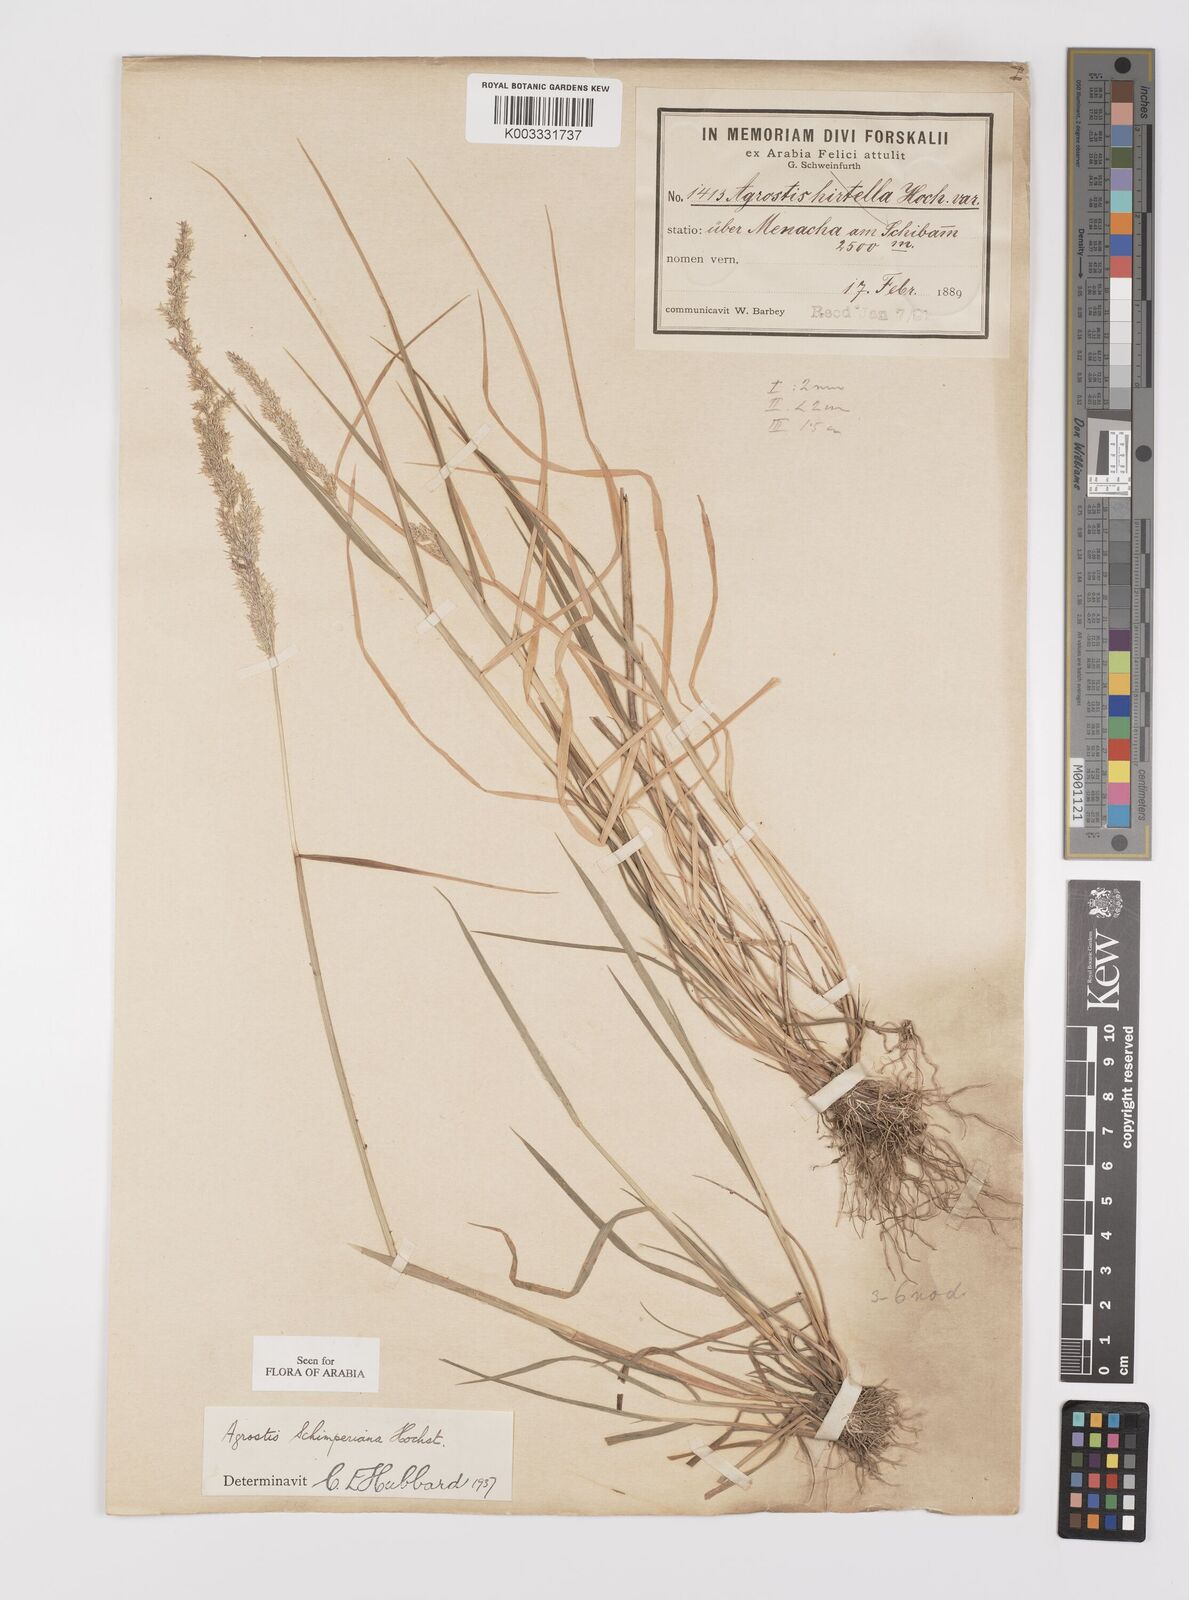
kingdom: Plantae
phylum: Tracheophyta
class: Liliopsida
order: Poales
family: Poaceae
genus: Polypogon
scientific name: Polypogon schimperianus
